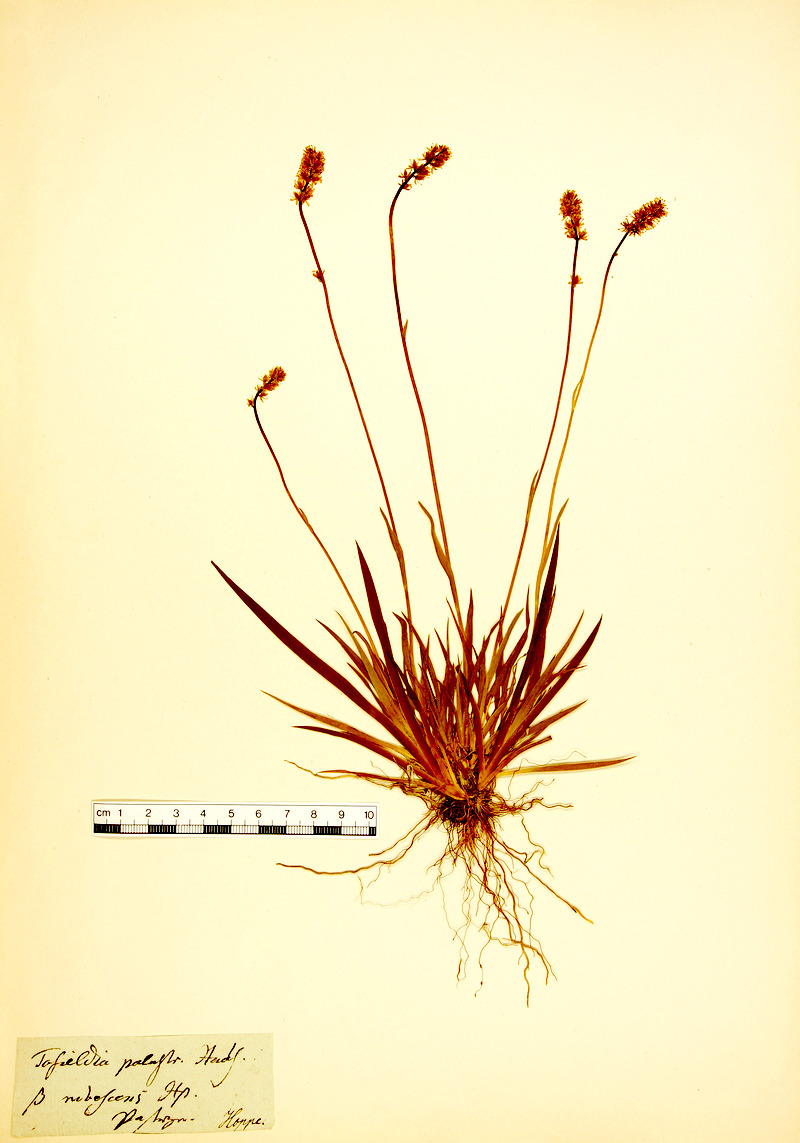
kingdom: Plantae
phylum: Tracheophyta
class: Liliopsida
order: Alismatales
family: Tofieldiaceae
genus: Tofieldia
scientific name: Tofieldia pusilla
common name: Scottish false asphodel
